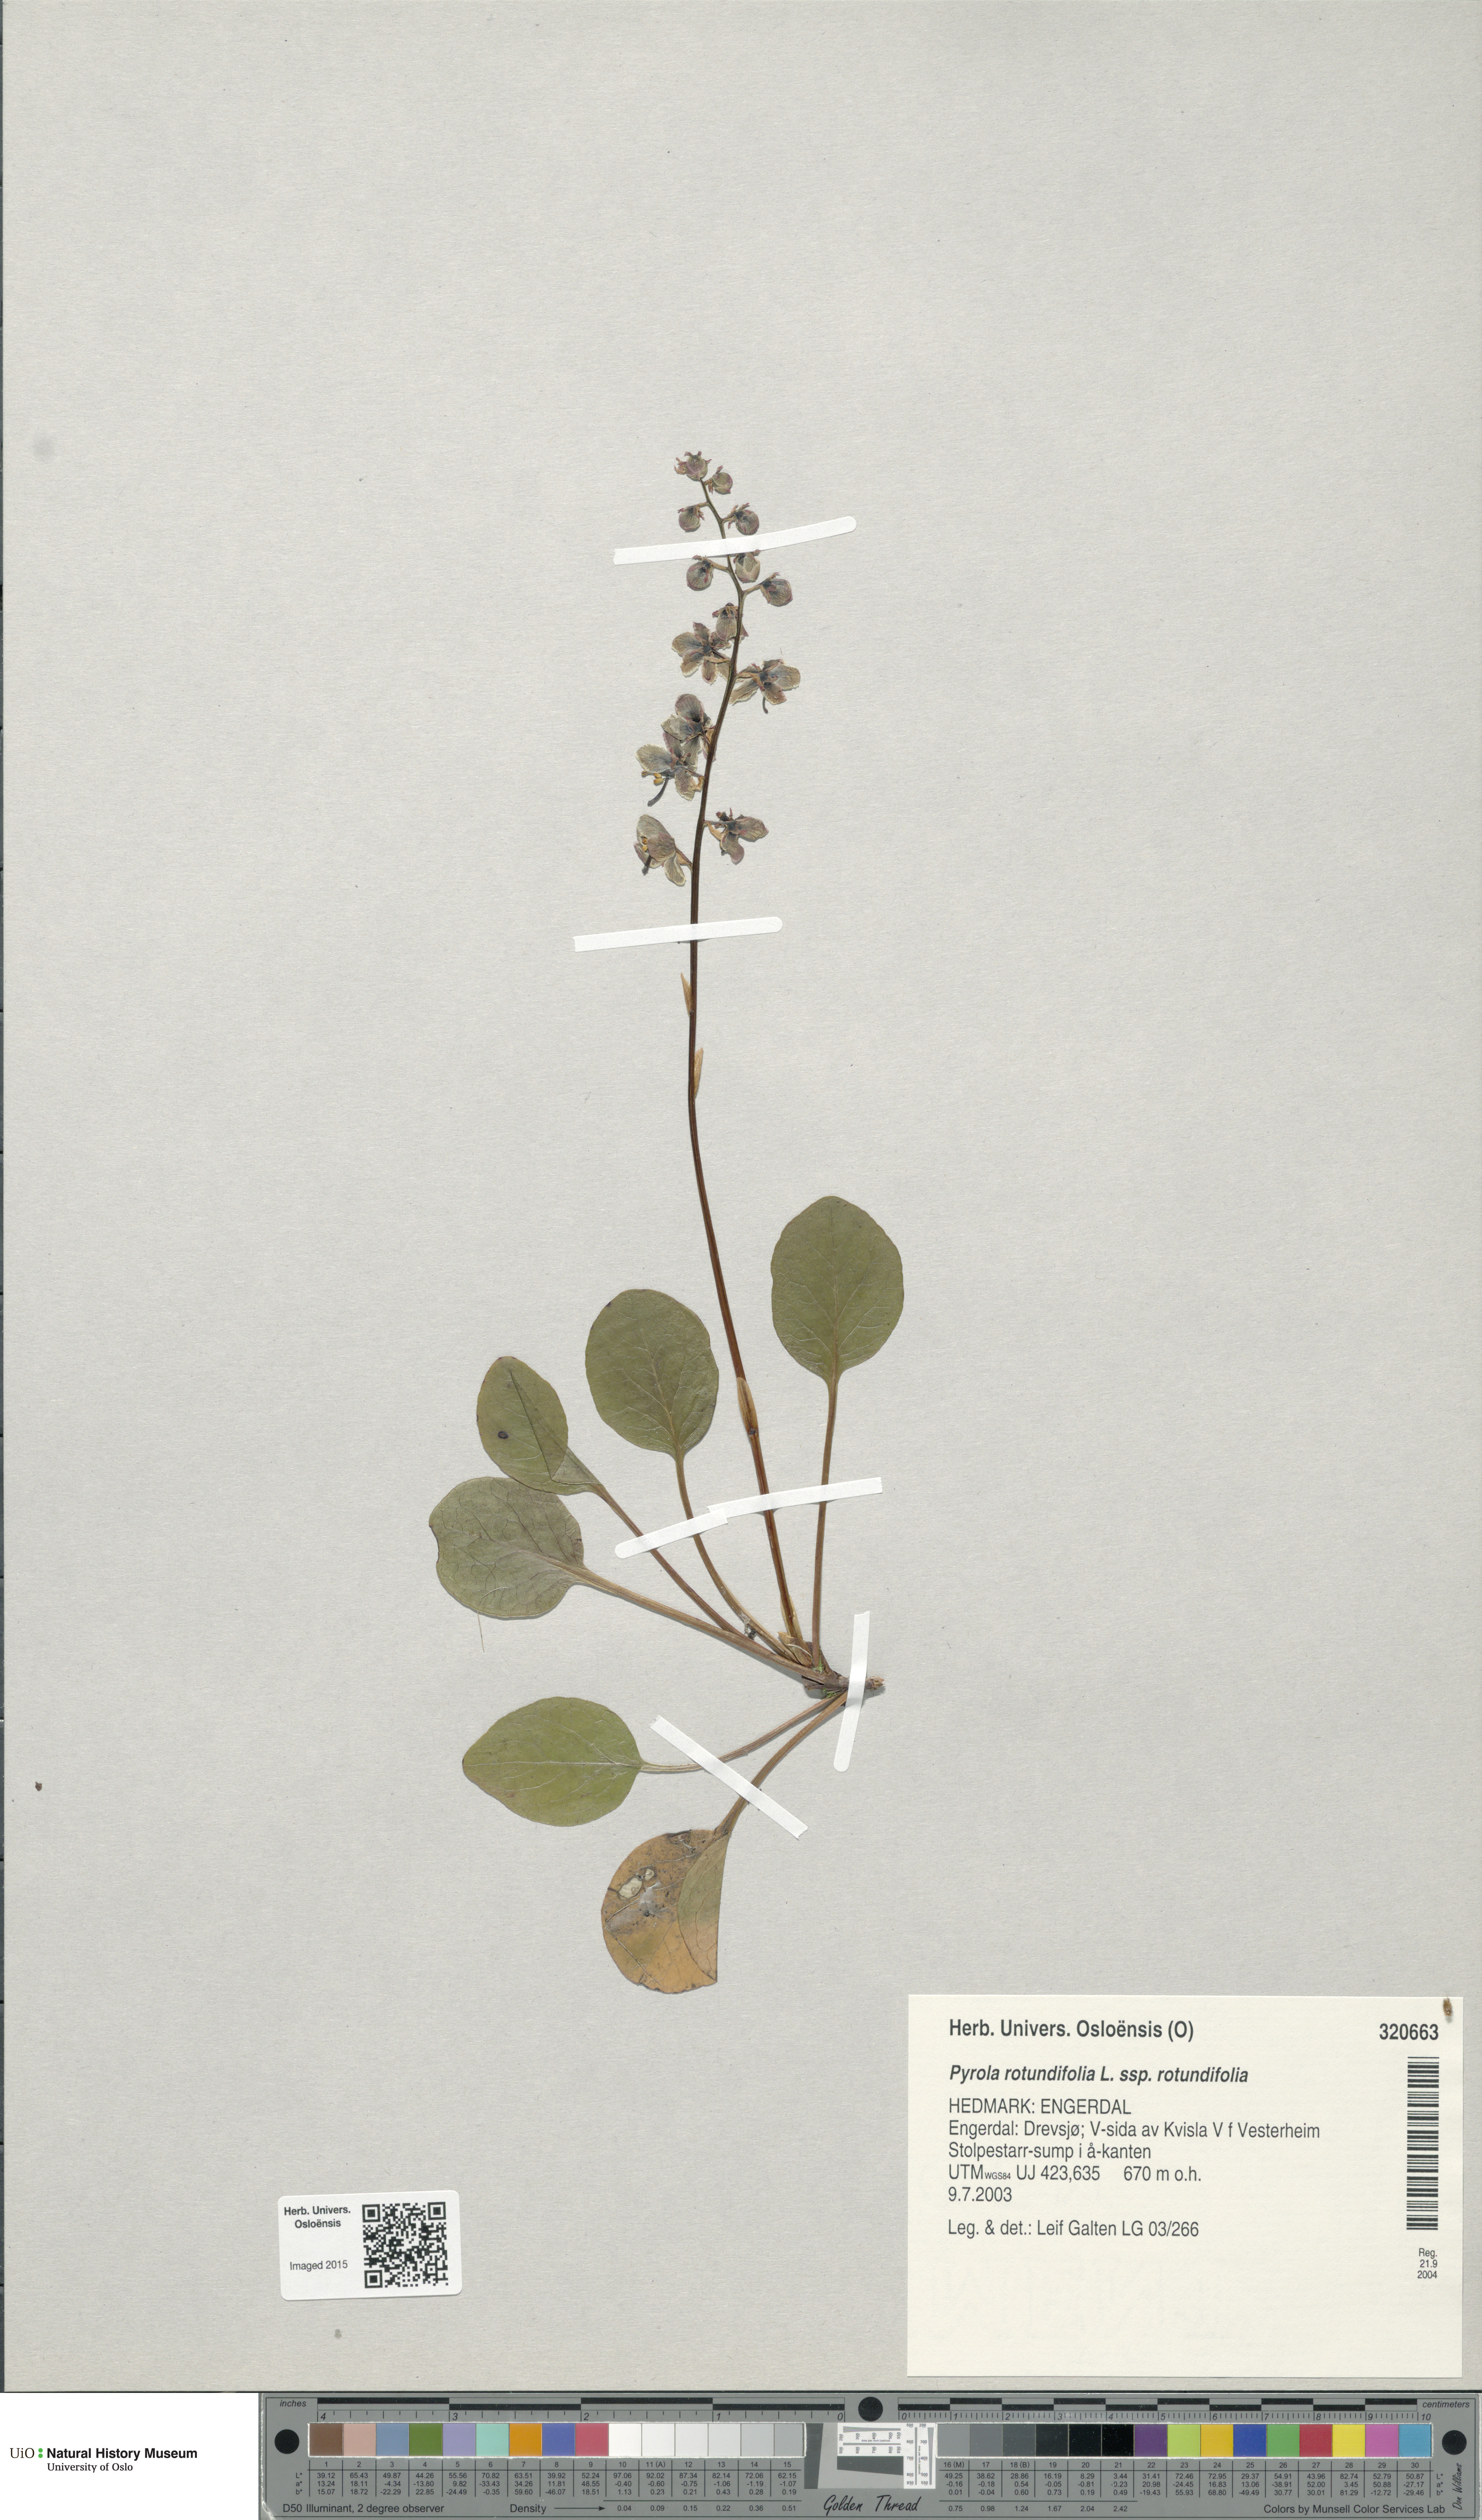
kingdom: Plantae
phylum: Tracheophyta
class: Magnoliopsida
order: Ericales
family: Ericaceae
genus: Pyrola
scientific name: Pyrola rotundifolia
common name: Round-leaved wintergreen
